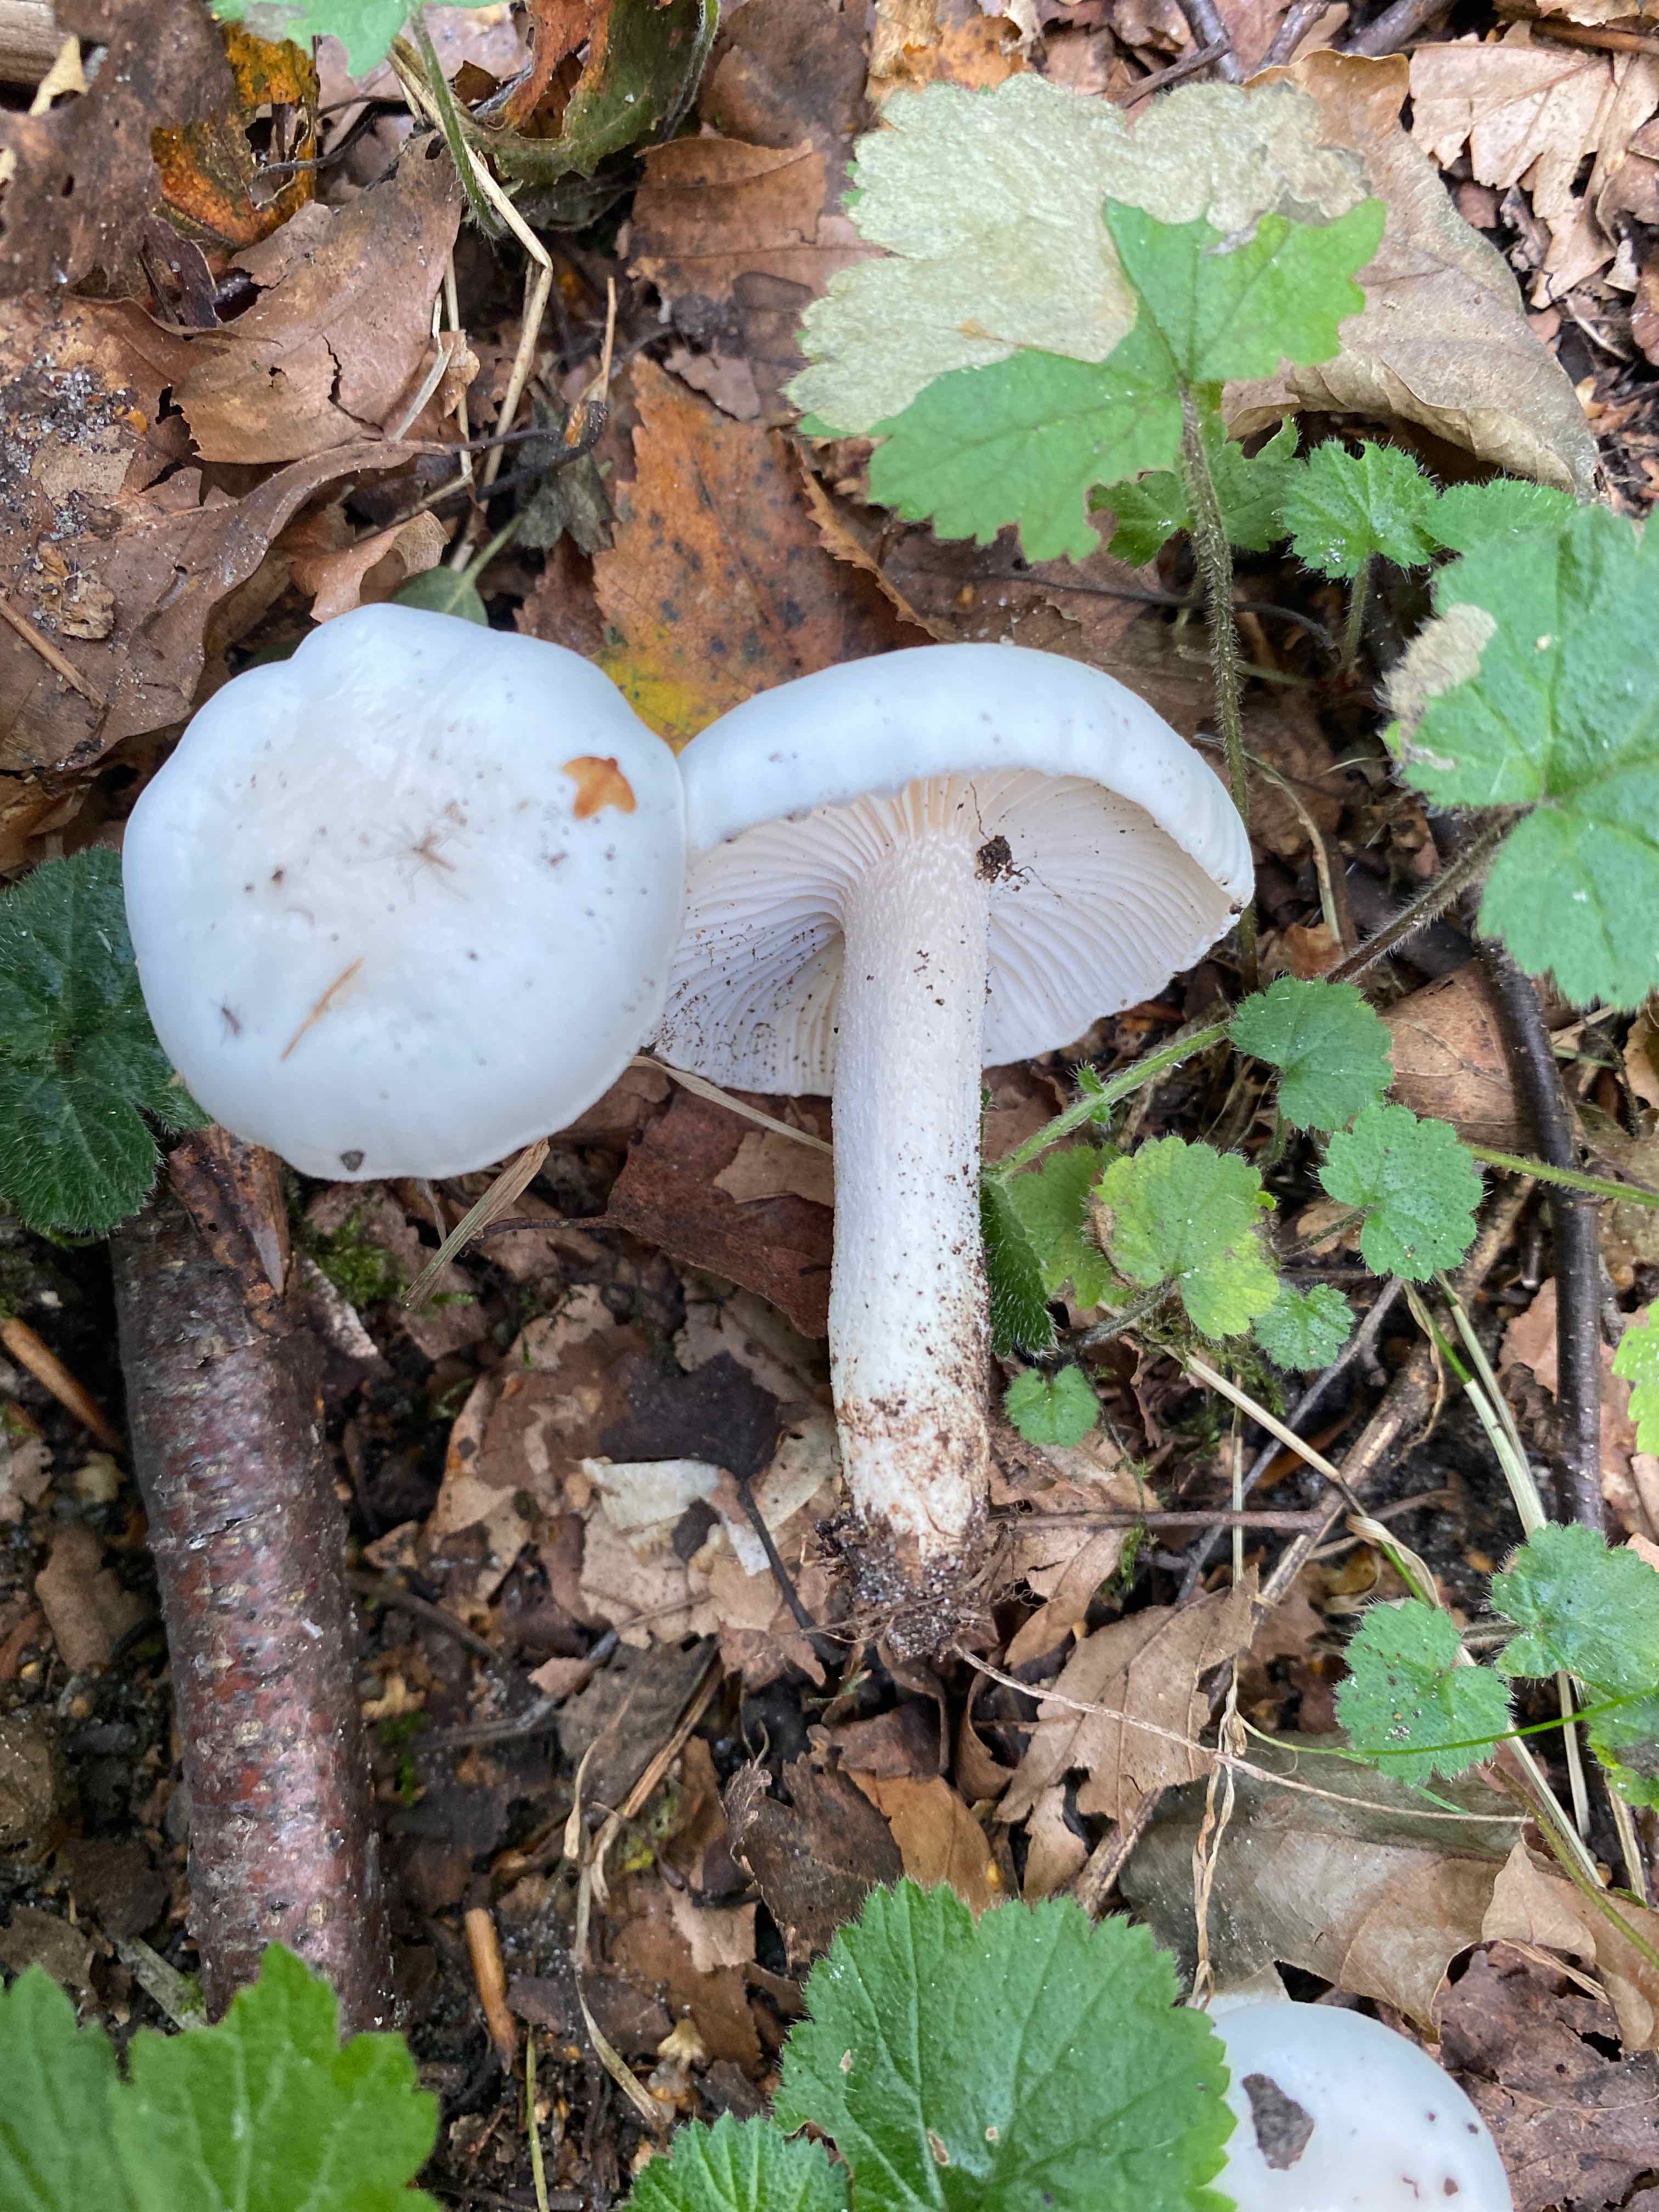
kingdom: Fungi
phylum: Basidiomycota
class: Agaricomycetes
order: Agaricales
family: Hygrophoraceae
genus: Hygrophorus
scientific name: Hygrophorus eburneus
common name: elfenbens-sneglehat
